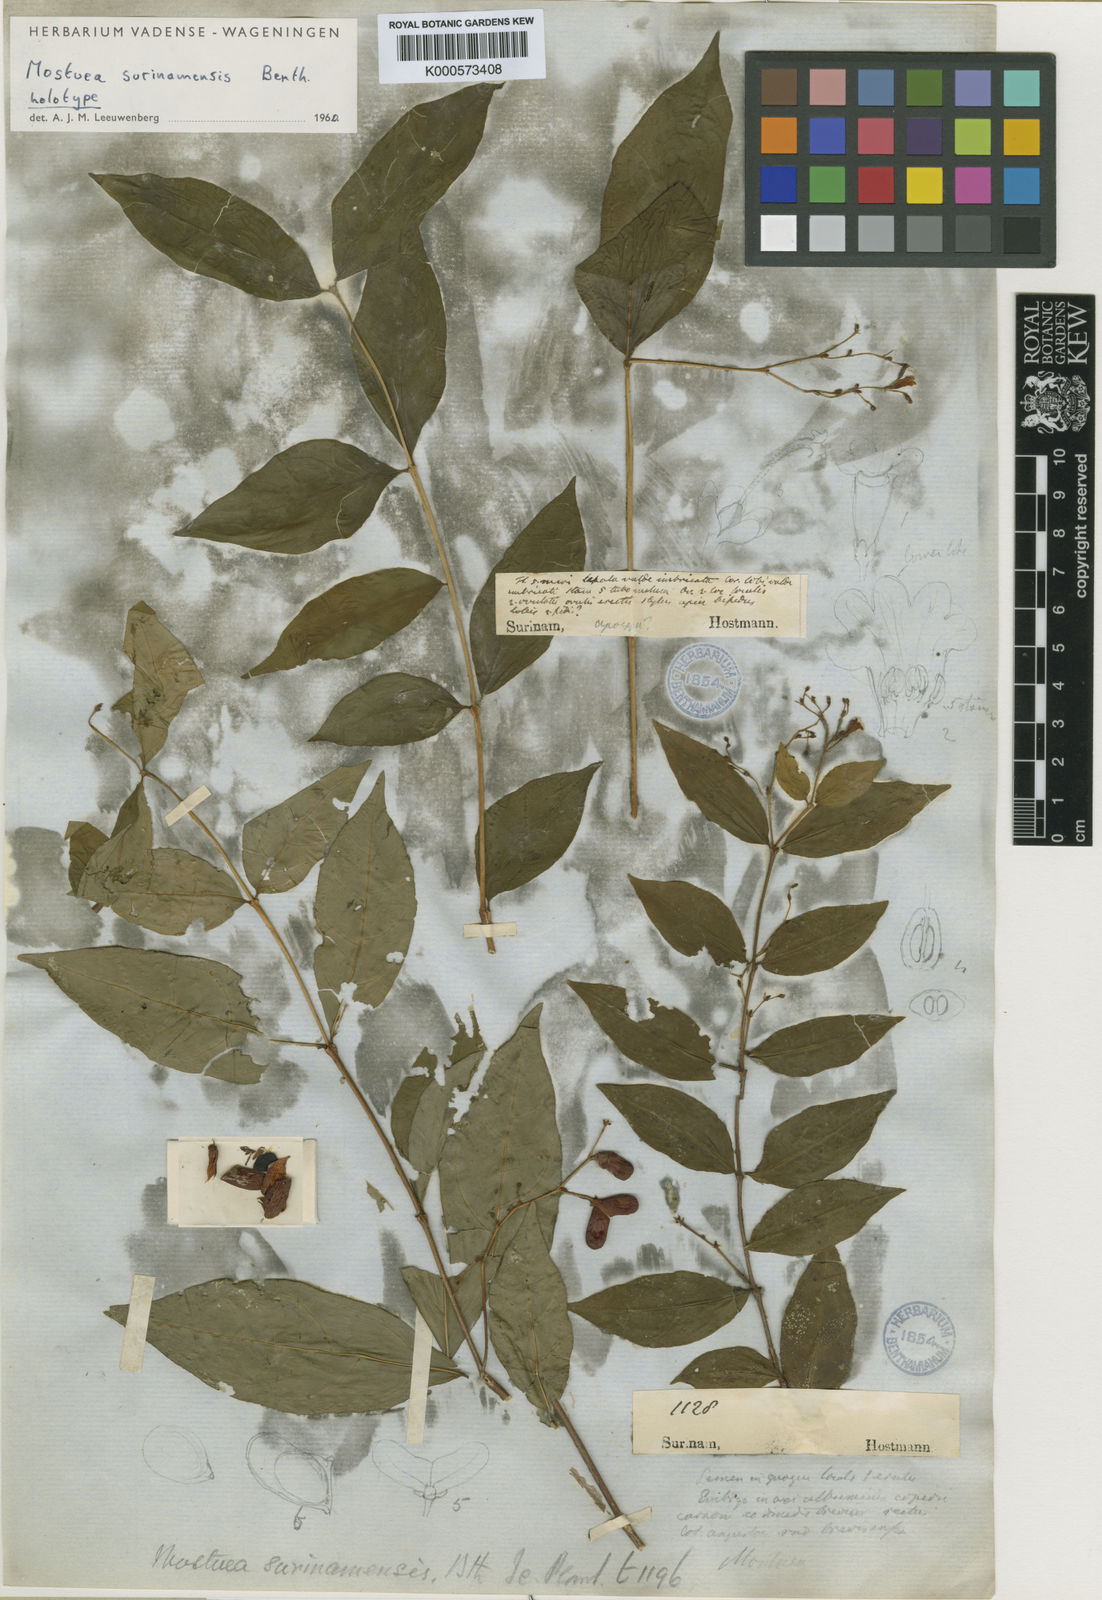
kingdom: Plantae
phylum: Tracheophyta
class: Magnoliopsida
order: Gentianales
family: Gelsemiaceae
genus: Mostuea
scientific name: Mostuea surinamensis
